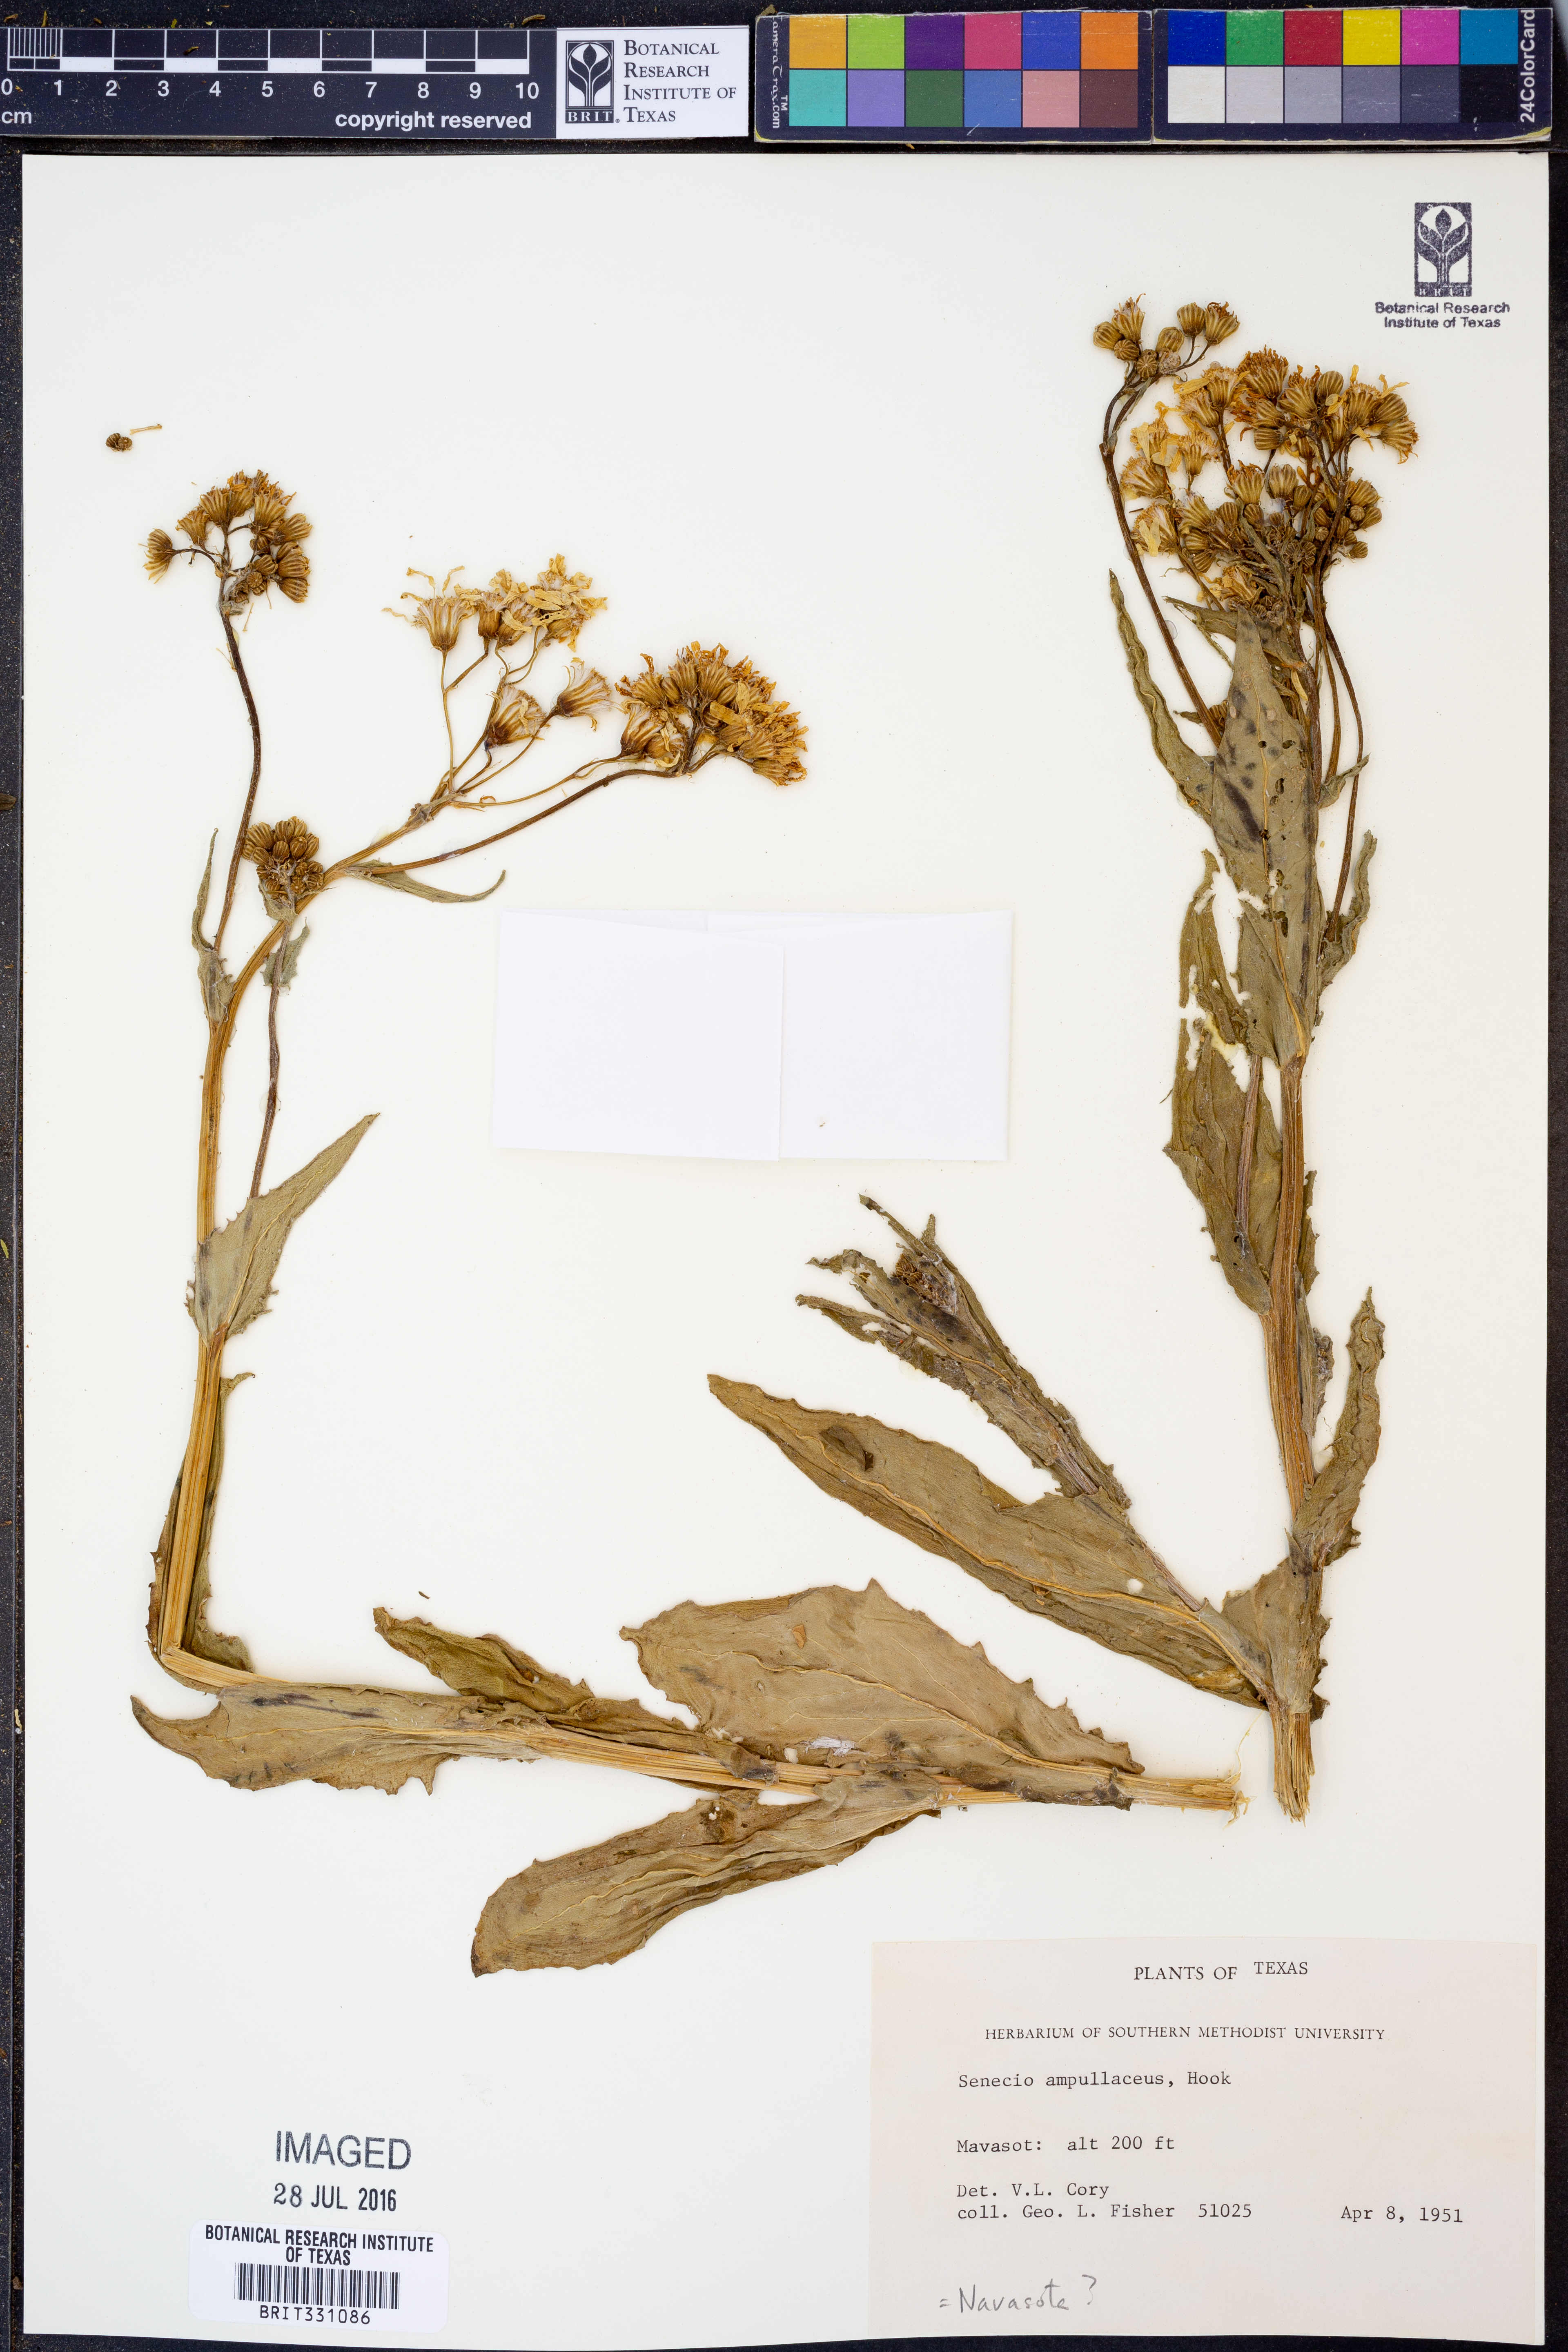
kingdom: Plantae
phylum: Tracheophyta
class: Magnoliopsida
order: Asterales
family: Asteraceae
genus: Senecio
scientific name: Senecio ampullaceus
